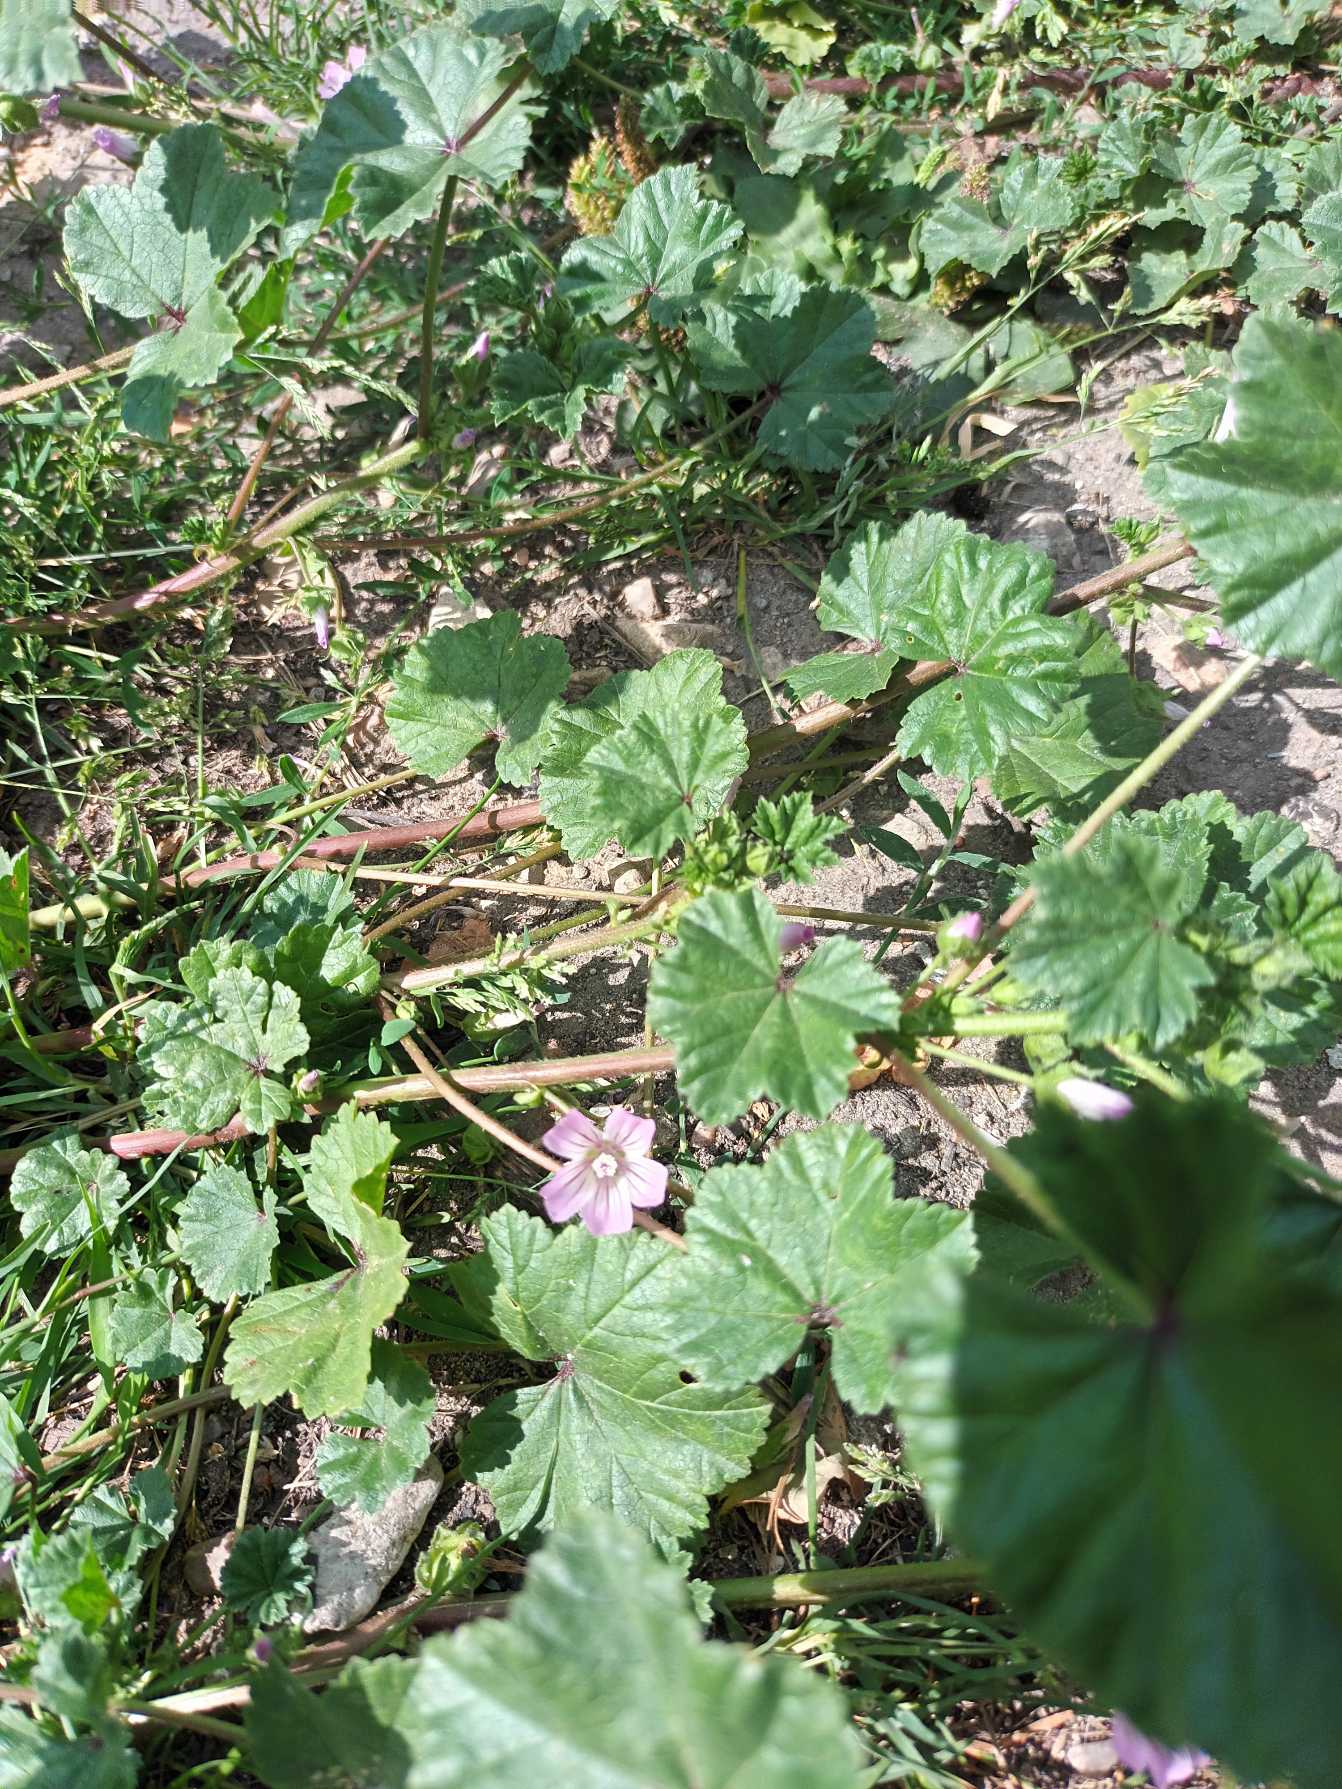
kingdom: Plantae
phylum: Tracheophyta
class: Magnoliopsida
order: Malvales
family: Malvaceae
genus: Malva
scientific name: Malva neglecta
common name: Rundbladet katost
